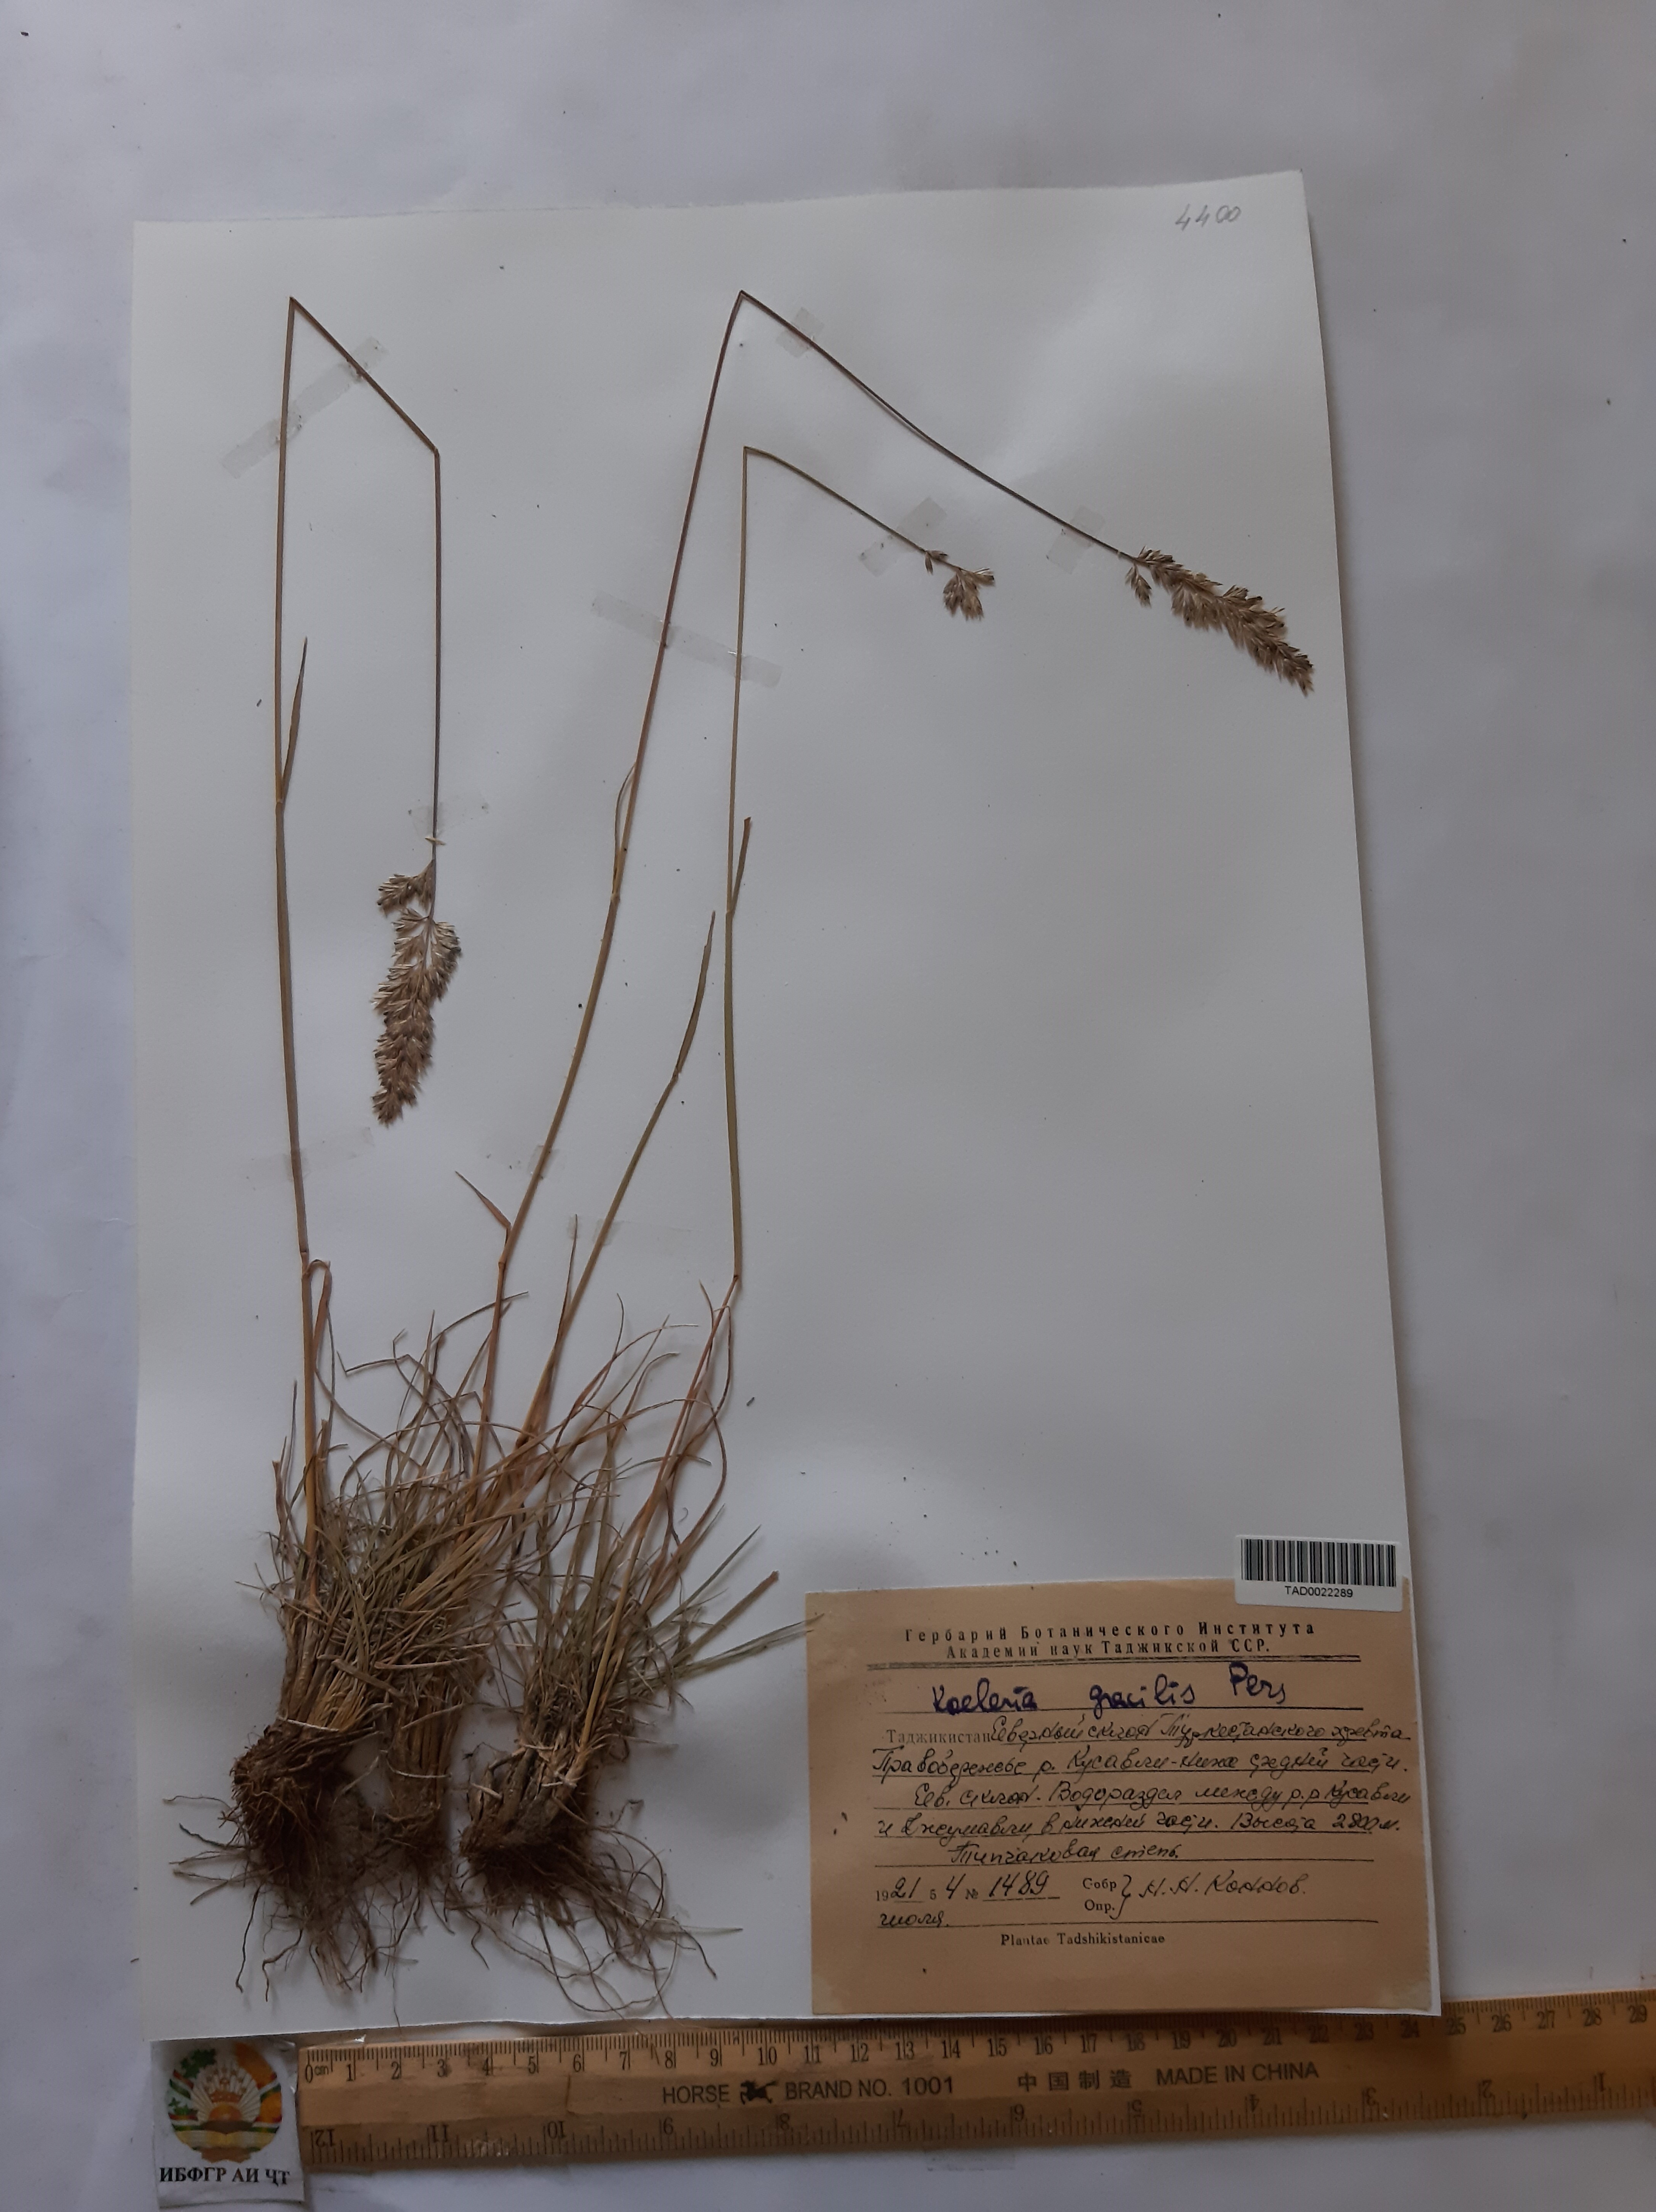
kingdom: Plantae
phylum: Tracheophyta
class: Liliopsida
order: Poales
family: Poaceae
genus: Koeleria
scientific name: Koeleria macrantha
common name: Crested hair-grass
